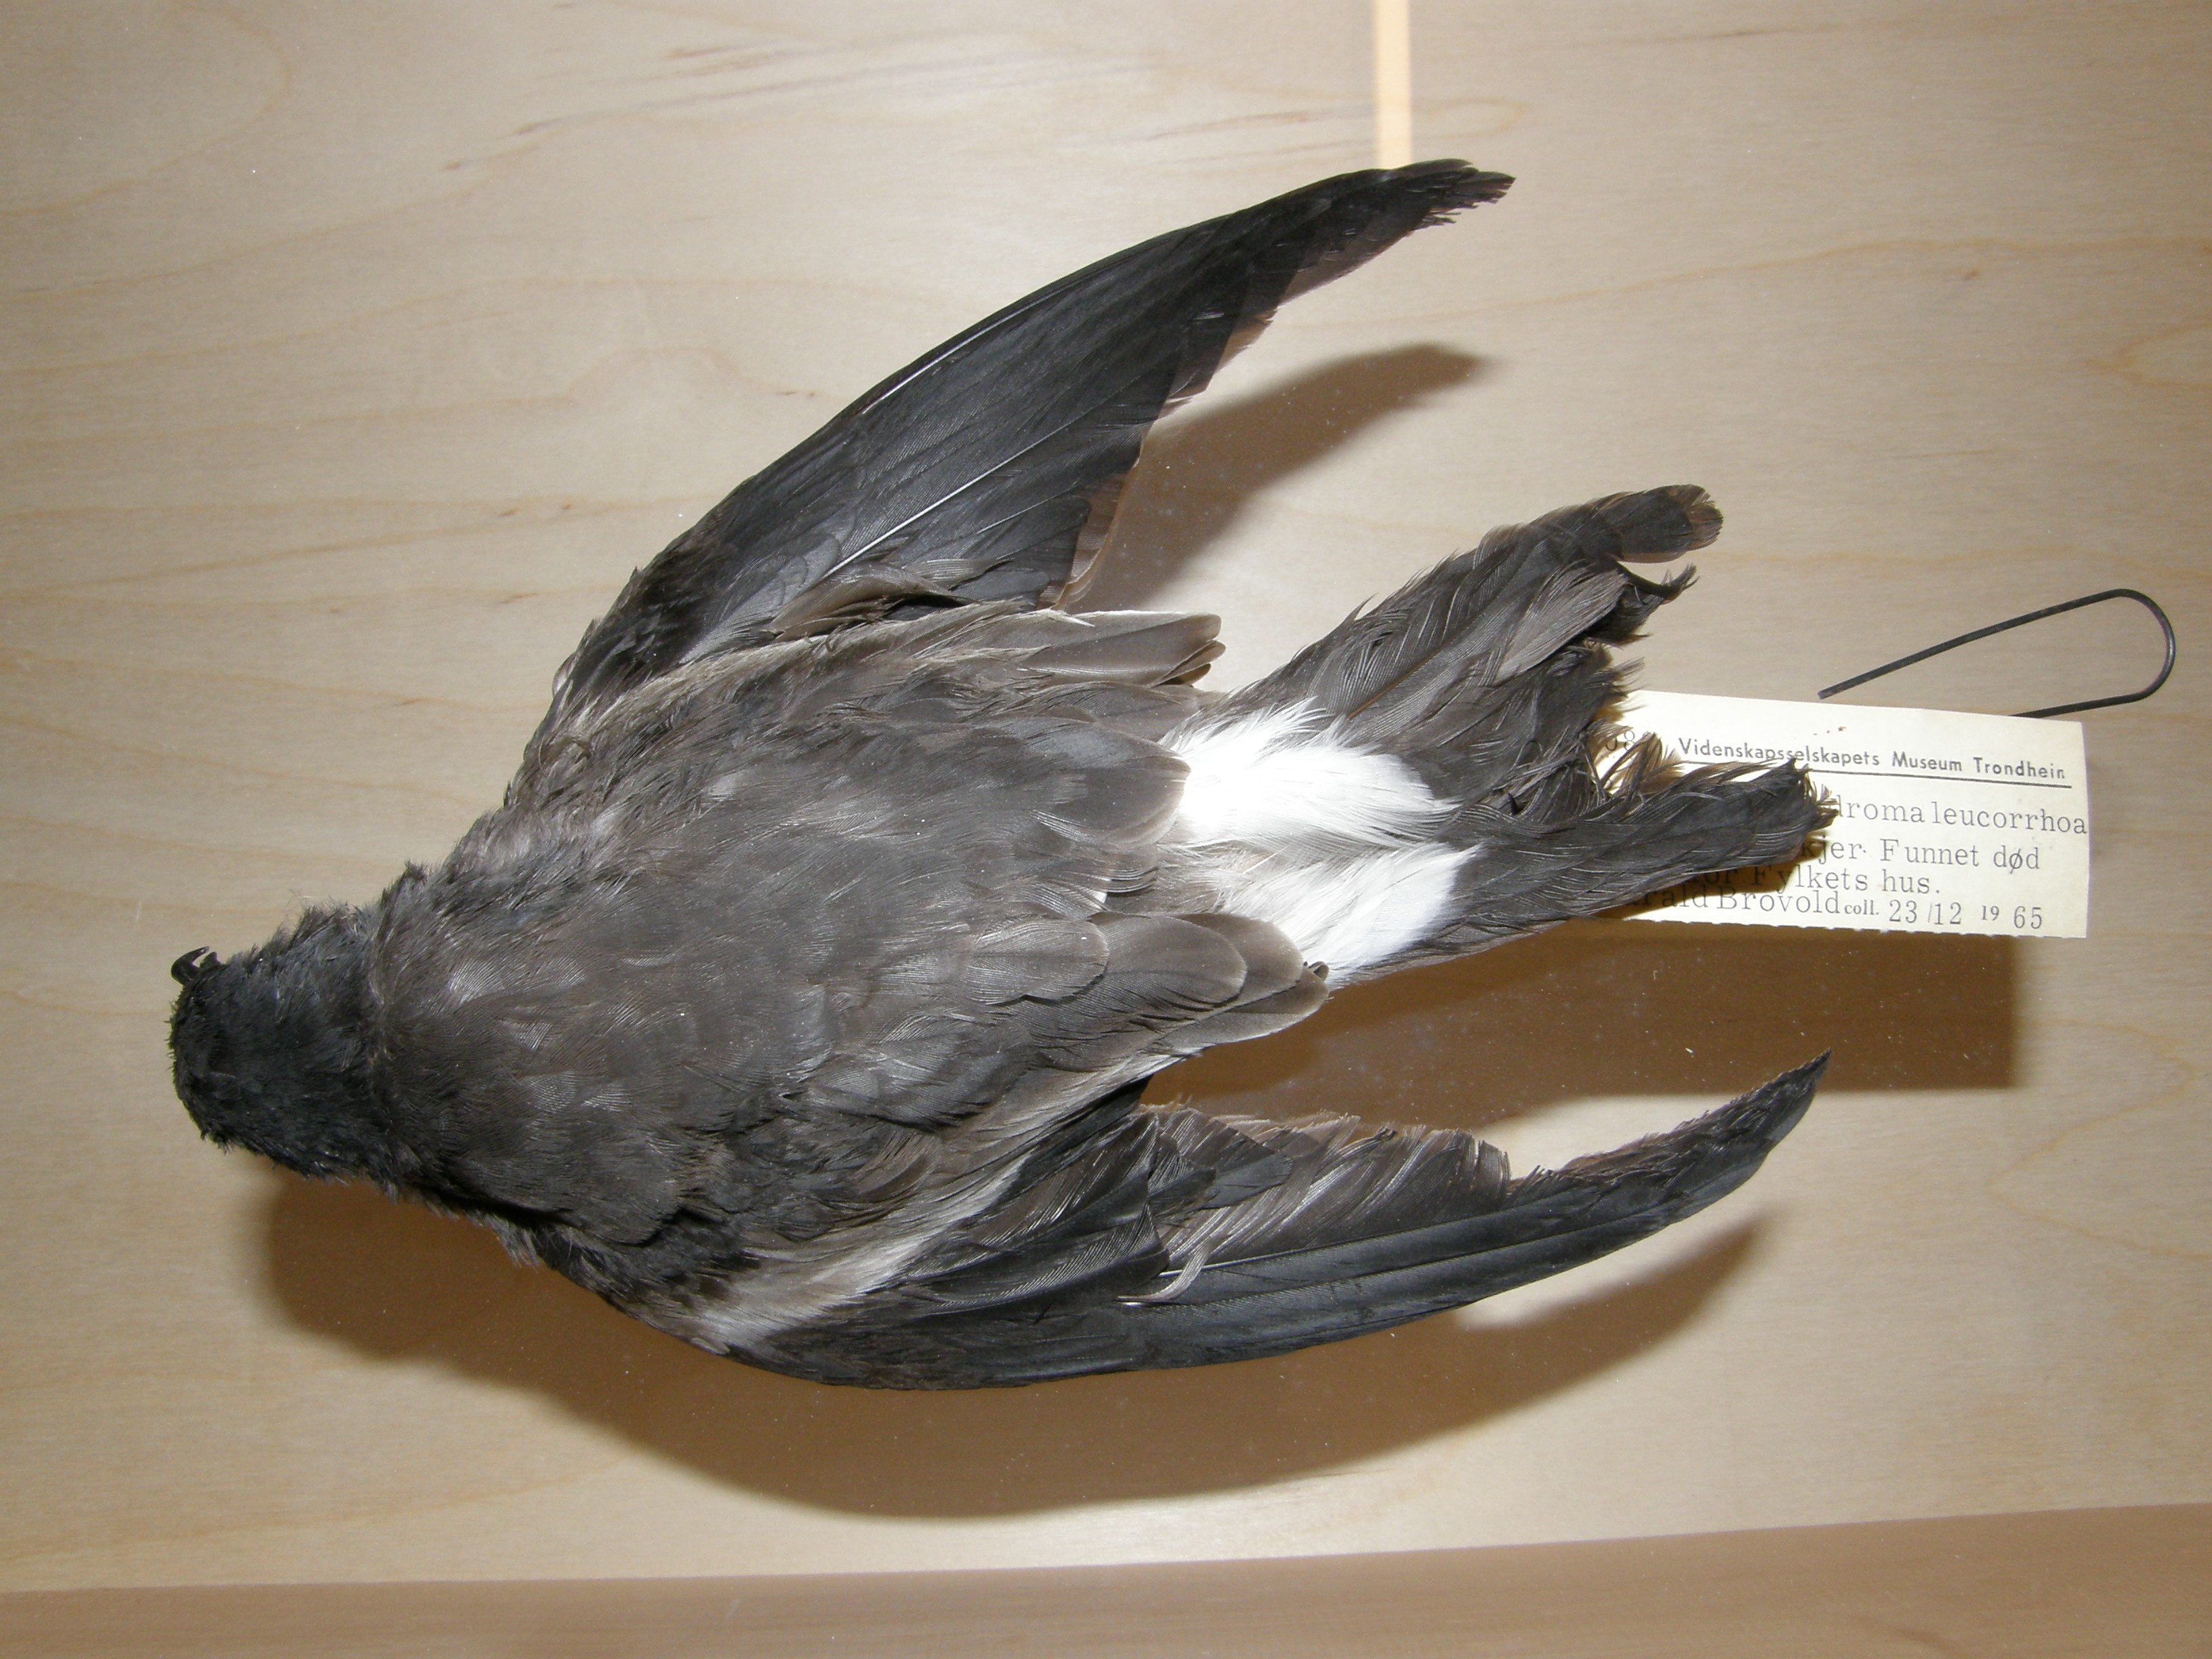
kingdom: Animalia
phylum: Chordata
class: Aves
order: Procellariiformes
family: Hydrobatidae
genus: Oceanodroma
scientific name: Oceanodroma leucorhoa
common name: Leach's storm-petrel
